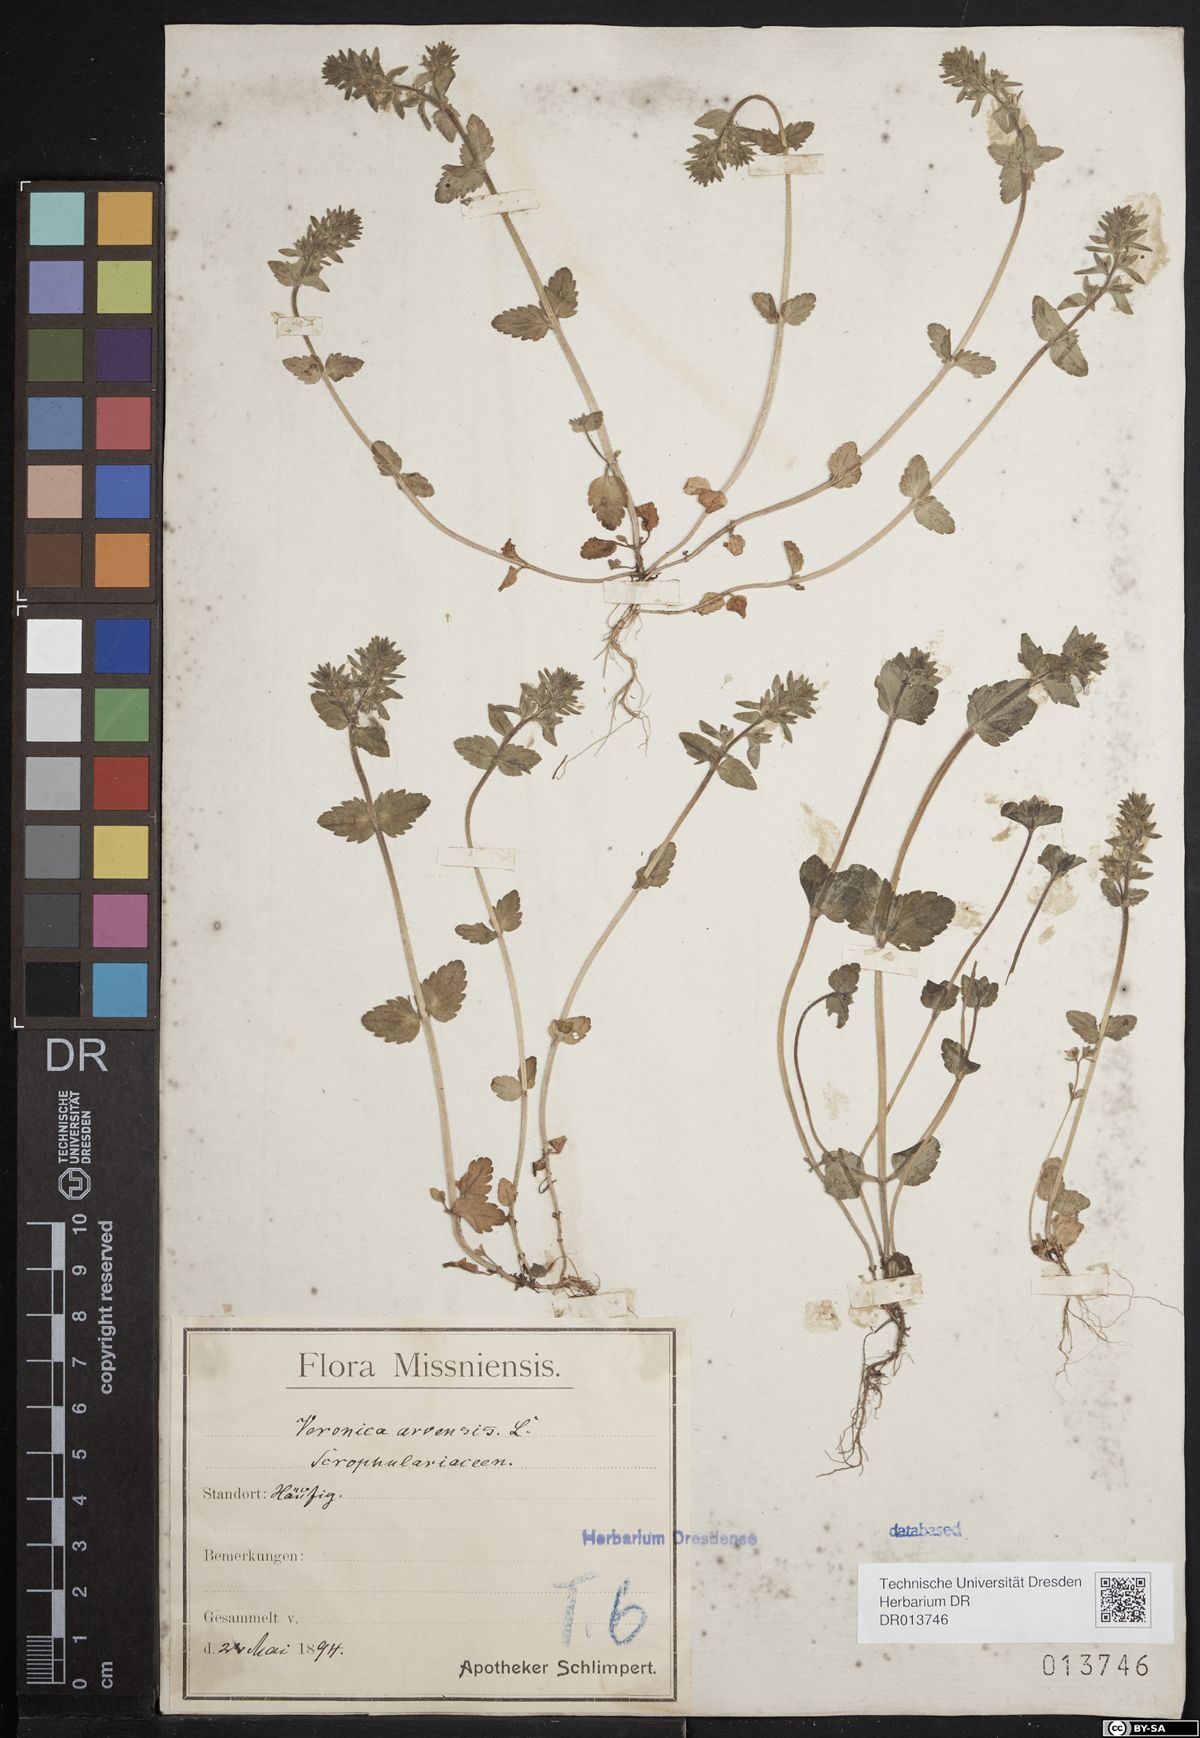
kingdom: Plantae
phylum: Tracheophyta
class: Magnoliopsida
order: Lamiales
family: Plantaginaceae
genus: Veronica
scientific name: Veronica arvensis
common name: Corn speedwell
